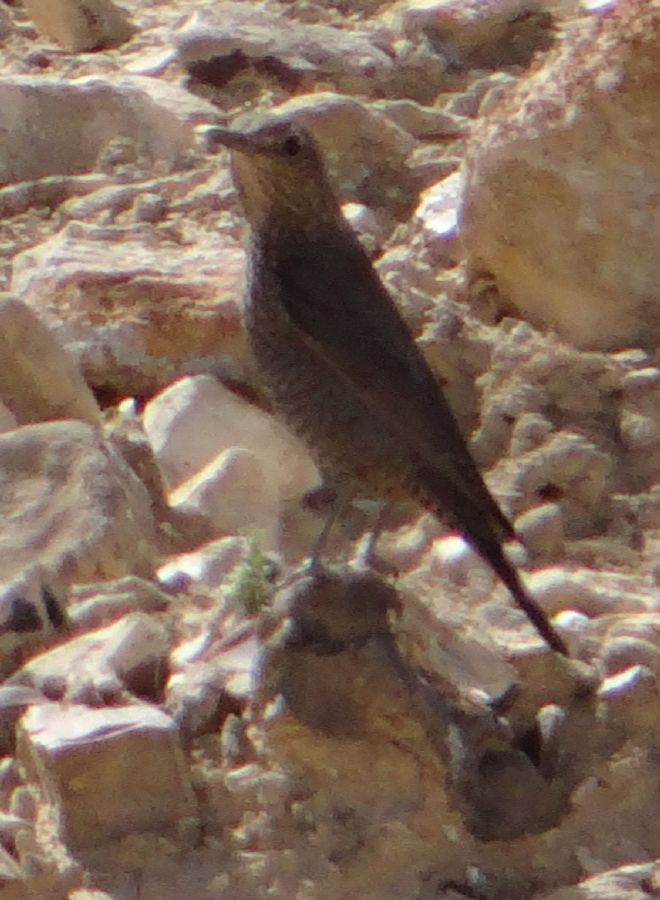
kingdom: Animalia
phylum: Chordata
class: Aves
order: Passeriformes
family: Muscicapidae
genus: Monticola
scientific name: Monticola solitarius
